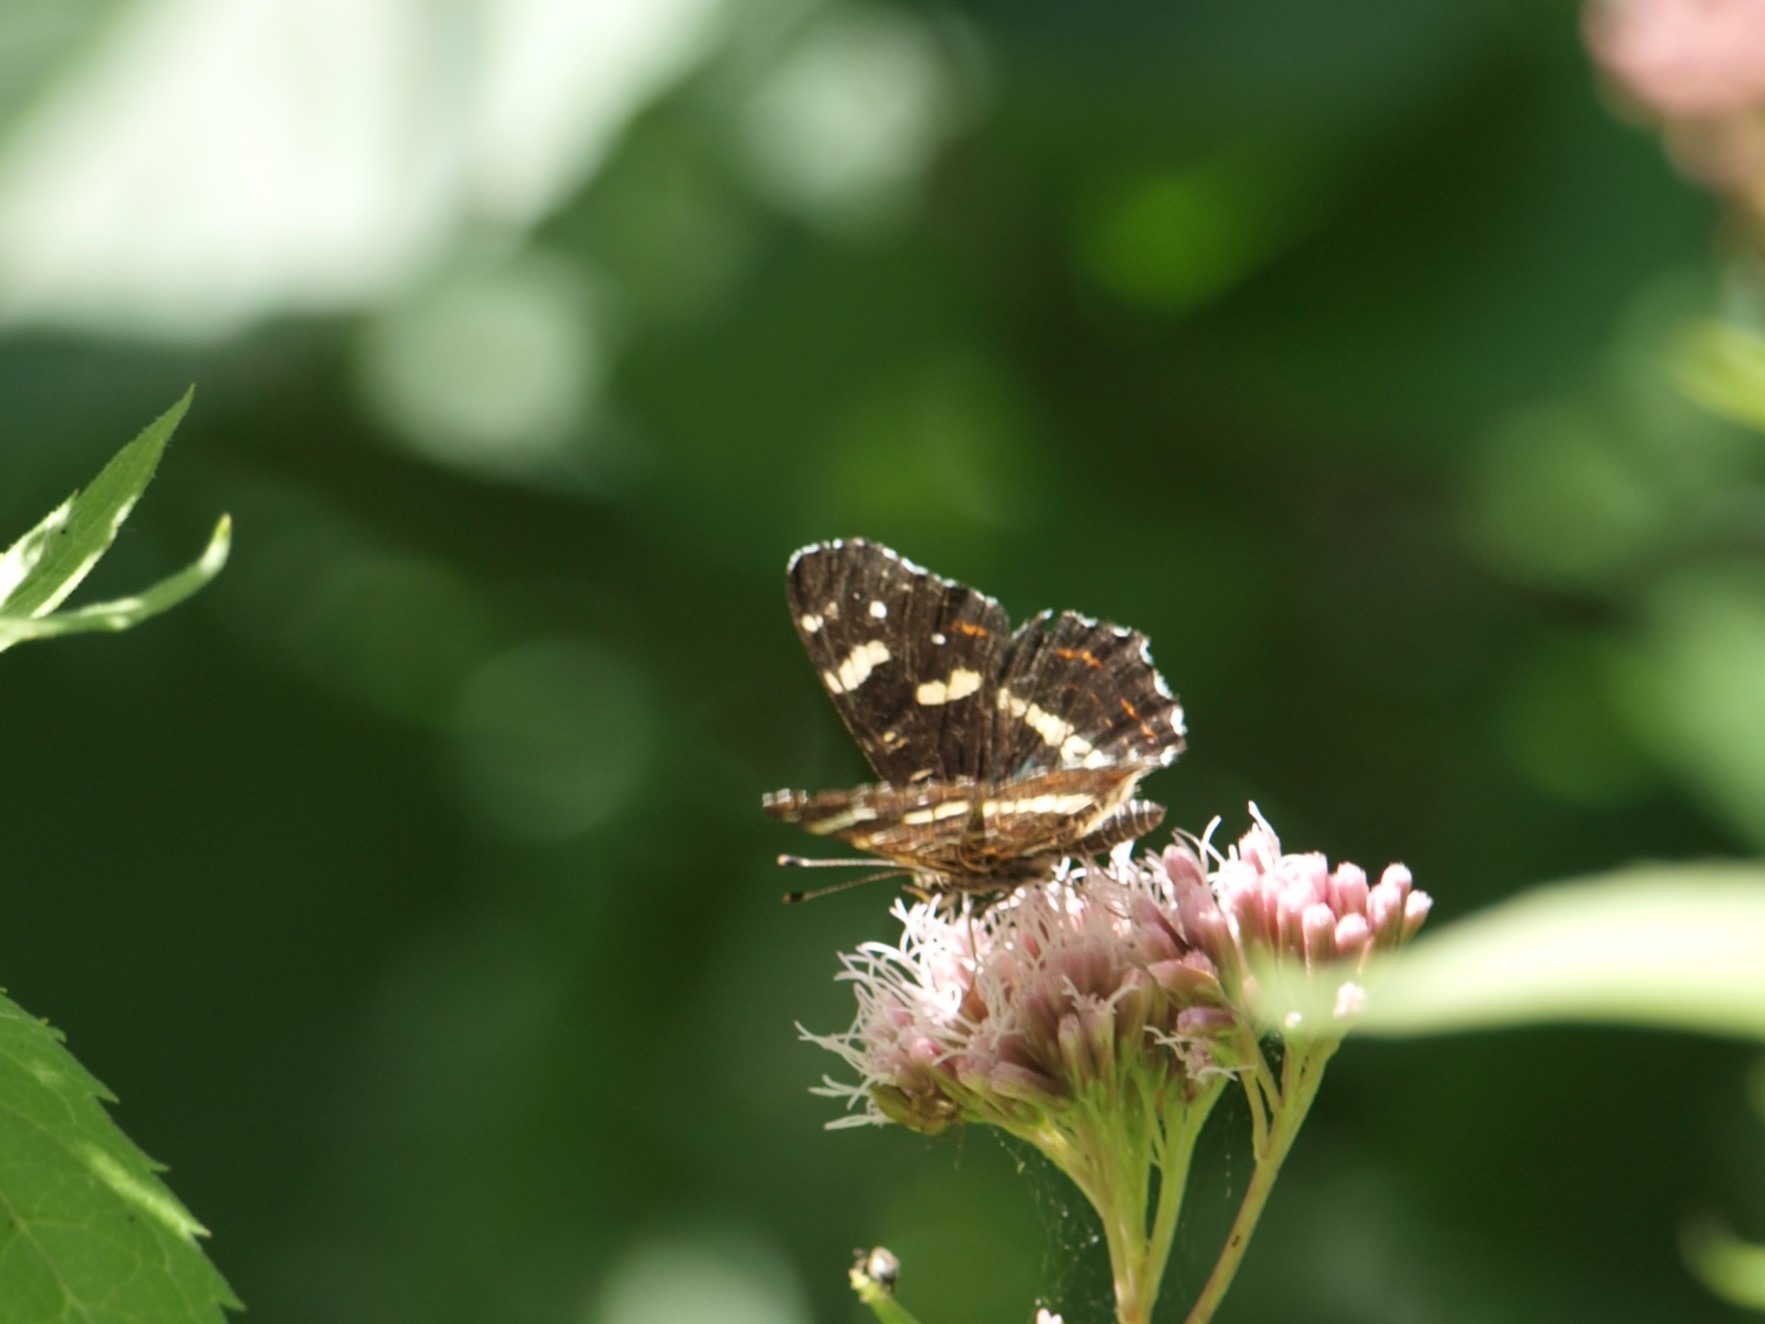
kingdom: Animalia
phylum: Arthropoda
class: Insecta
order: Lepidoptera
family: Nymphalidae
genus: Araschnia
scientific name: Araschnia levana
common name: Nældesommerfugl
